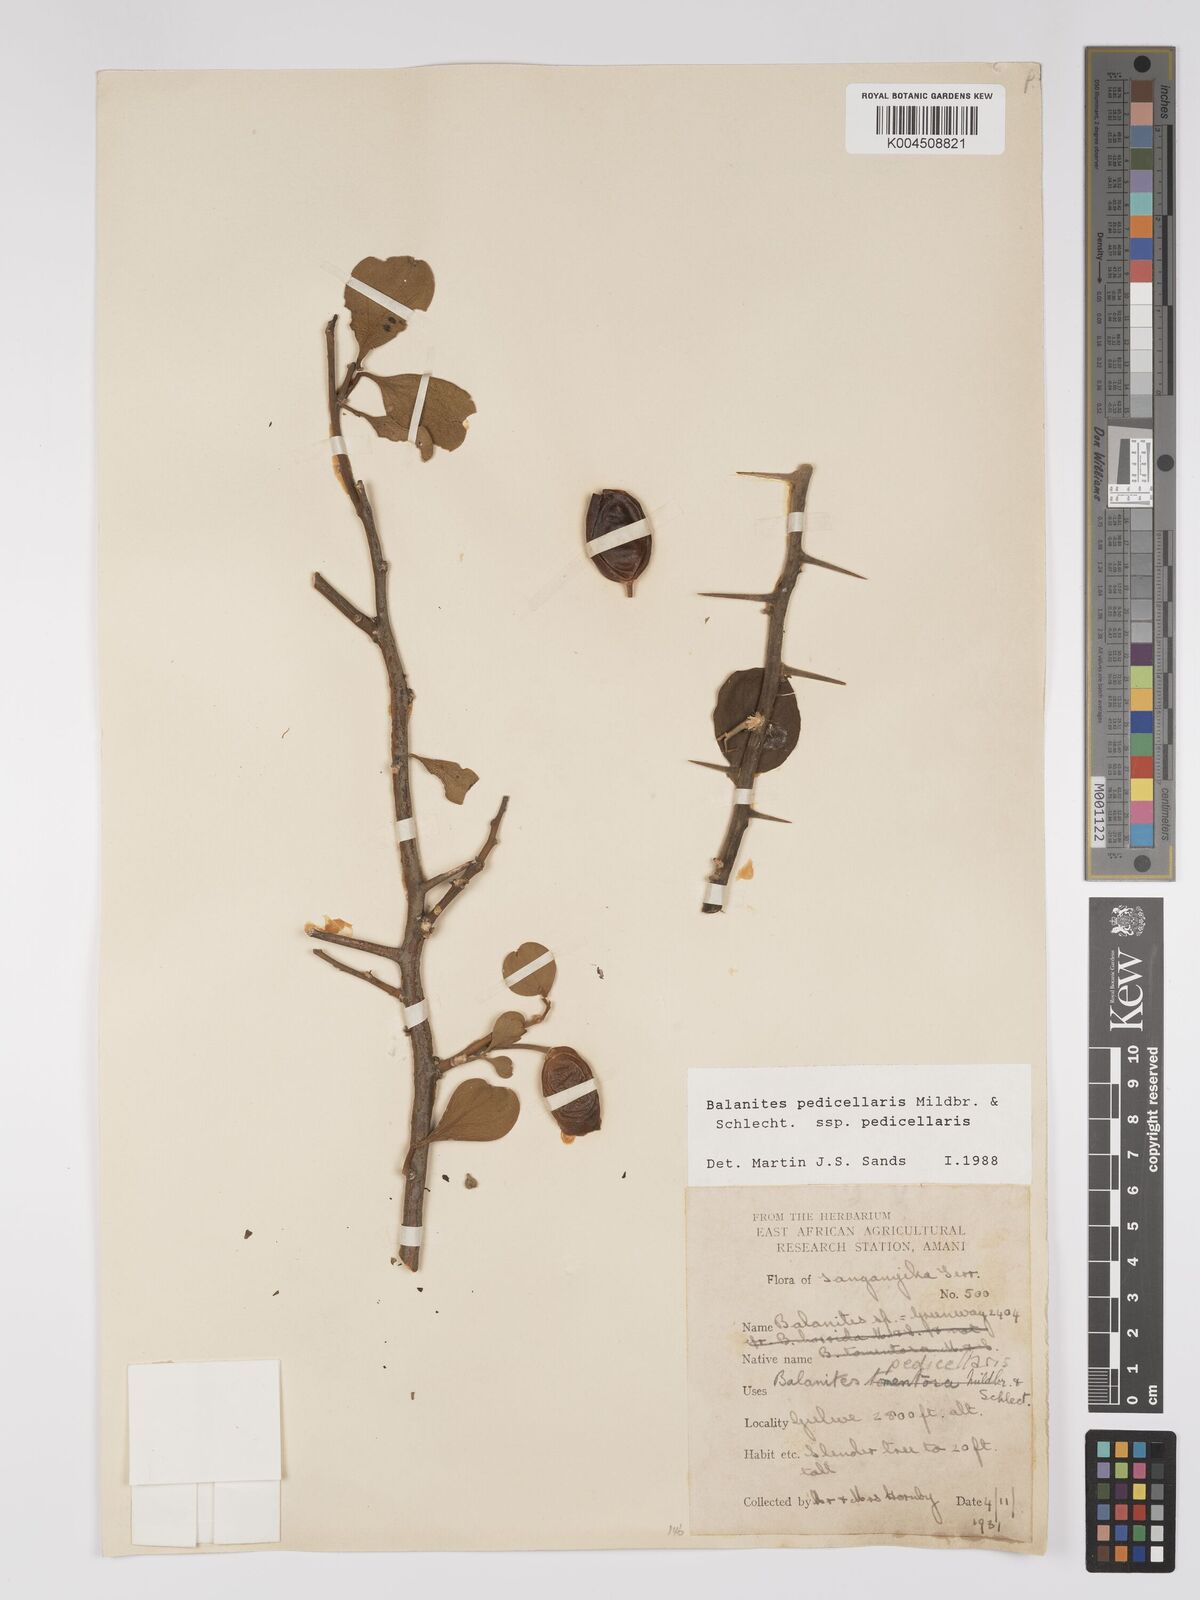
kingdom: Plantae
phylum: Tracheophyta
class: Magnoliopsida
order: Zygophyllales
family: Zygophyllaceae
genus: Balanites
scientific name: Balanites pedicellaris
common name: Small green-thorn
